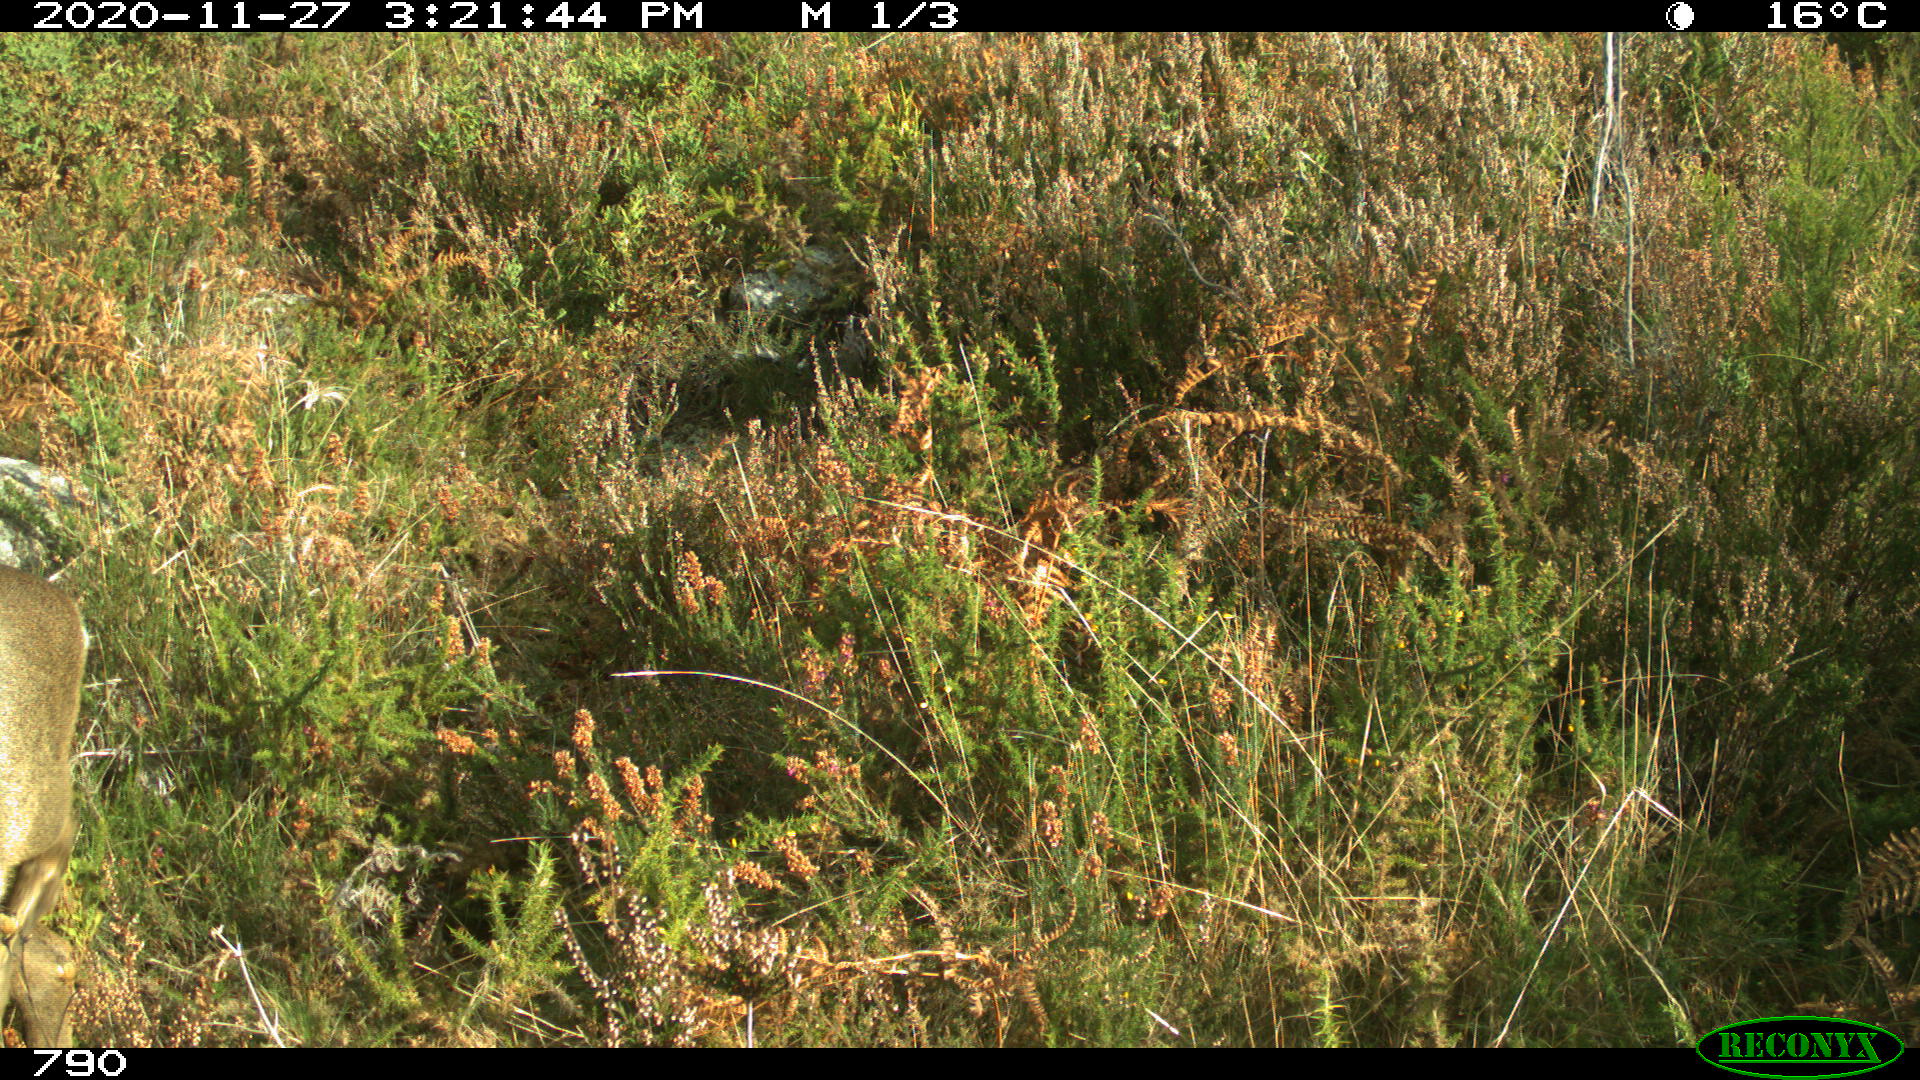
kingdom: Animalia
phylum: Chordata
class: Mammalia
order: Artiodactyla
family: Cervidae
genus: Capreolus
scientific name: Capreolus capreolus
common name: Western roe deer
